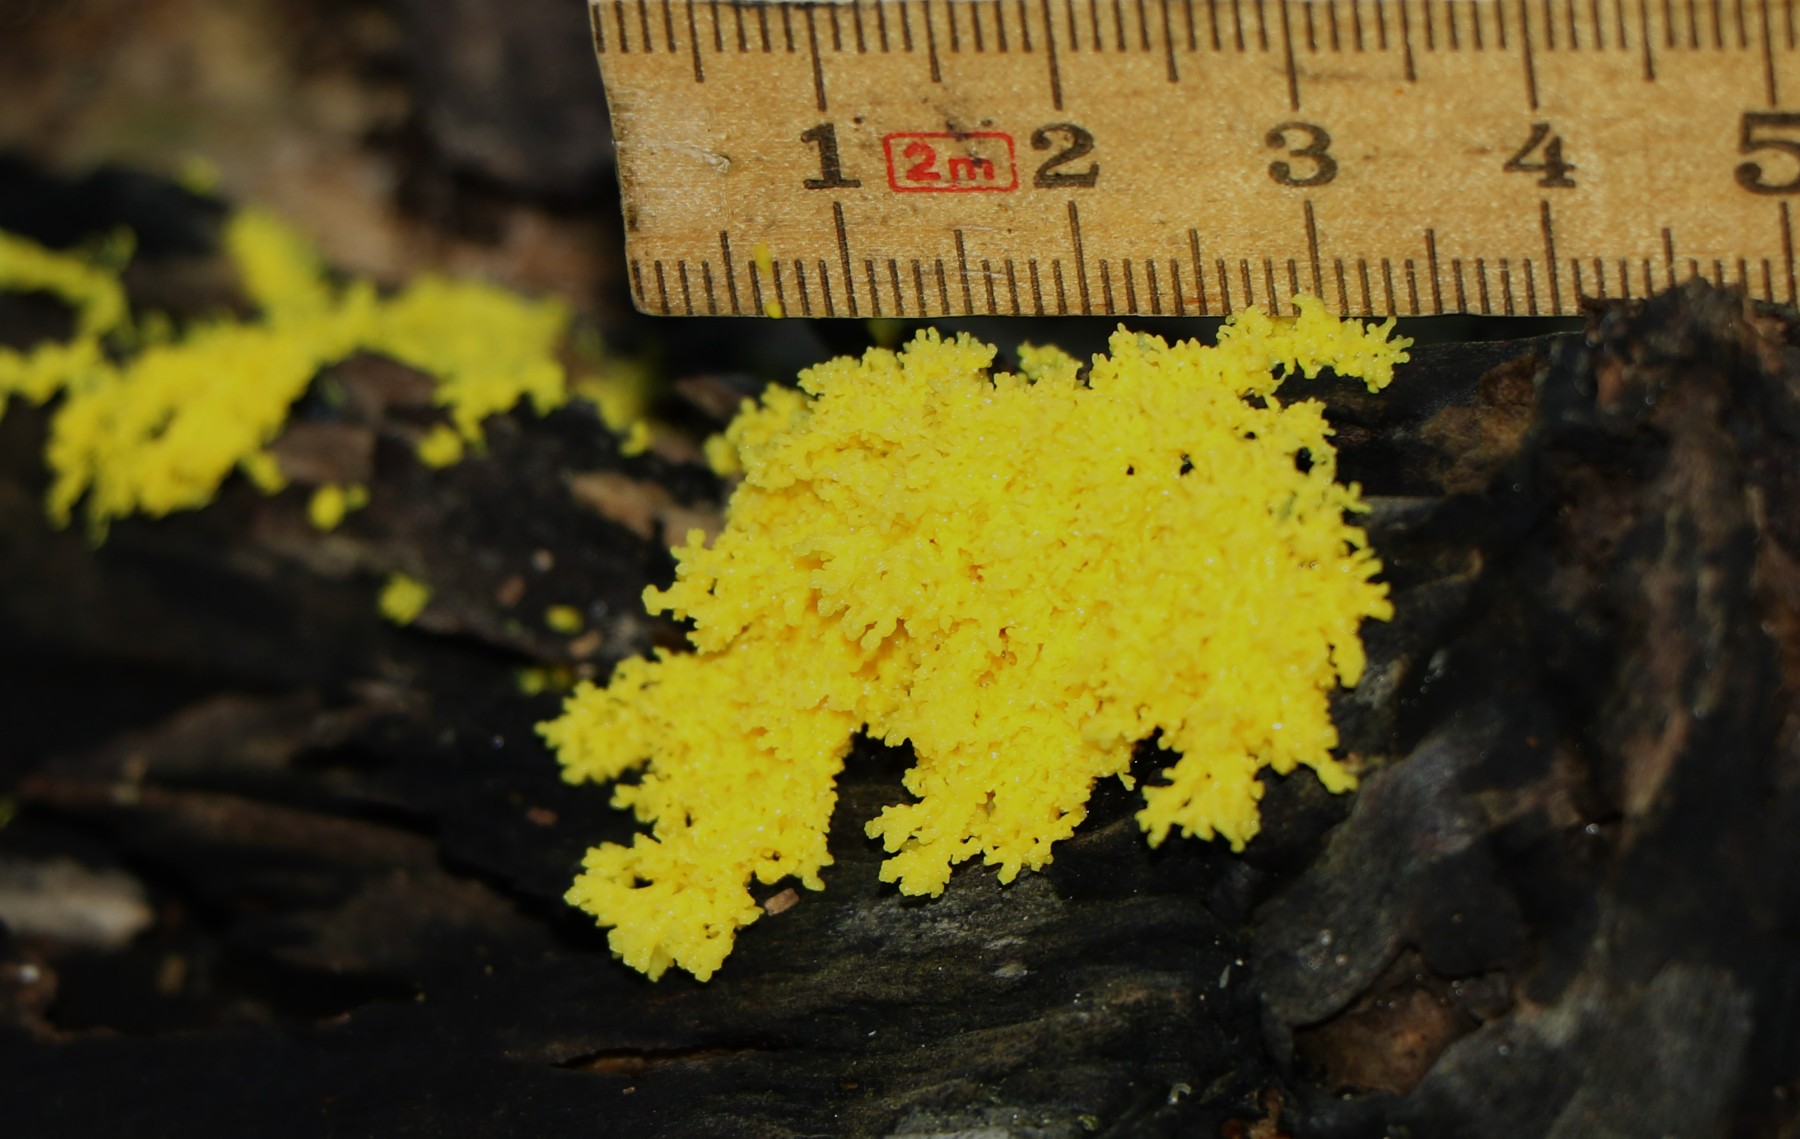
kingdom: Protozoa
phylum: Mycetozoa
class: Myxomycetes
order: Physarales
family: Physaraceae
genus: Fuligo
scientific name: Fuligo
